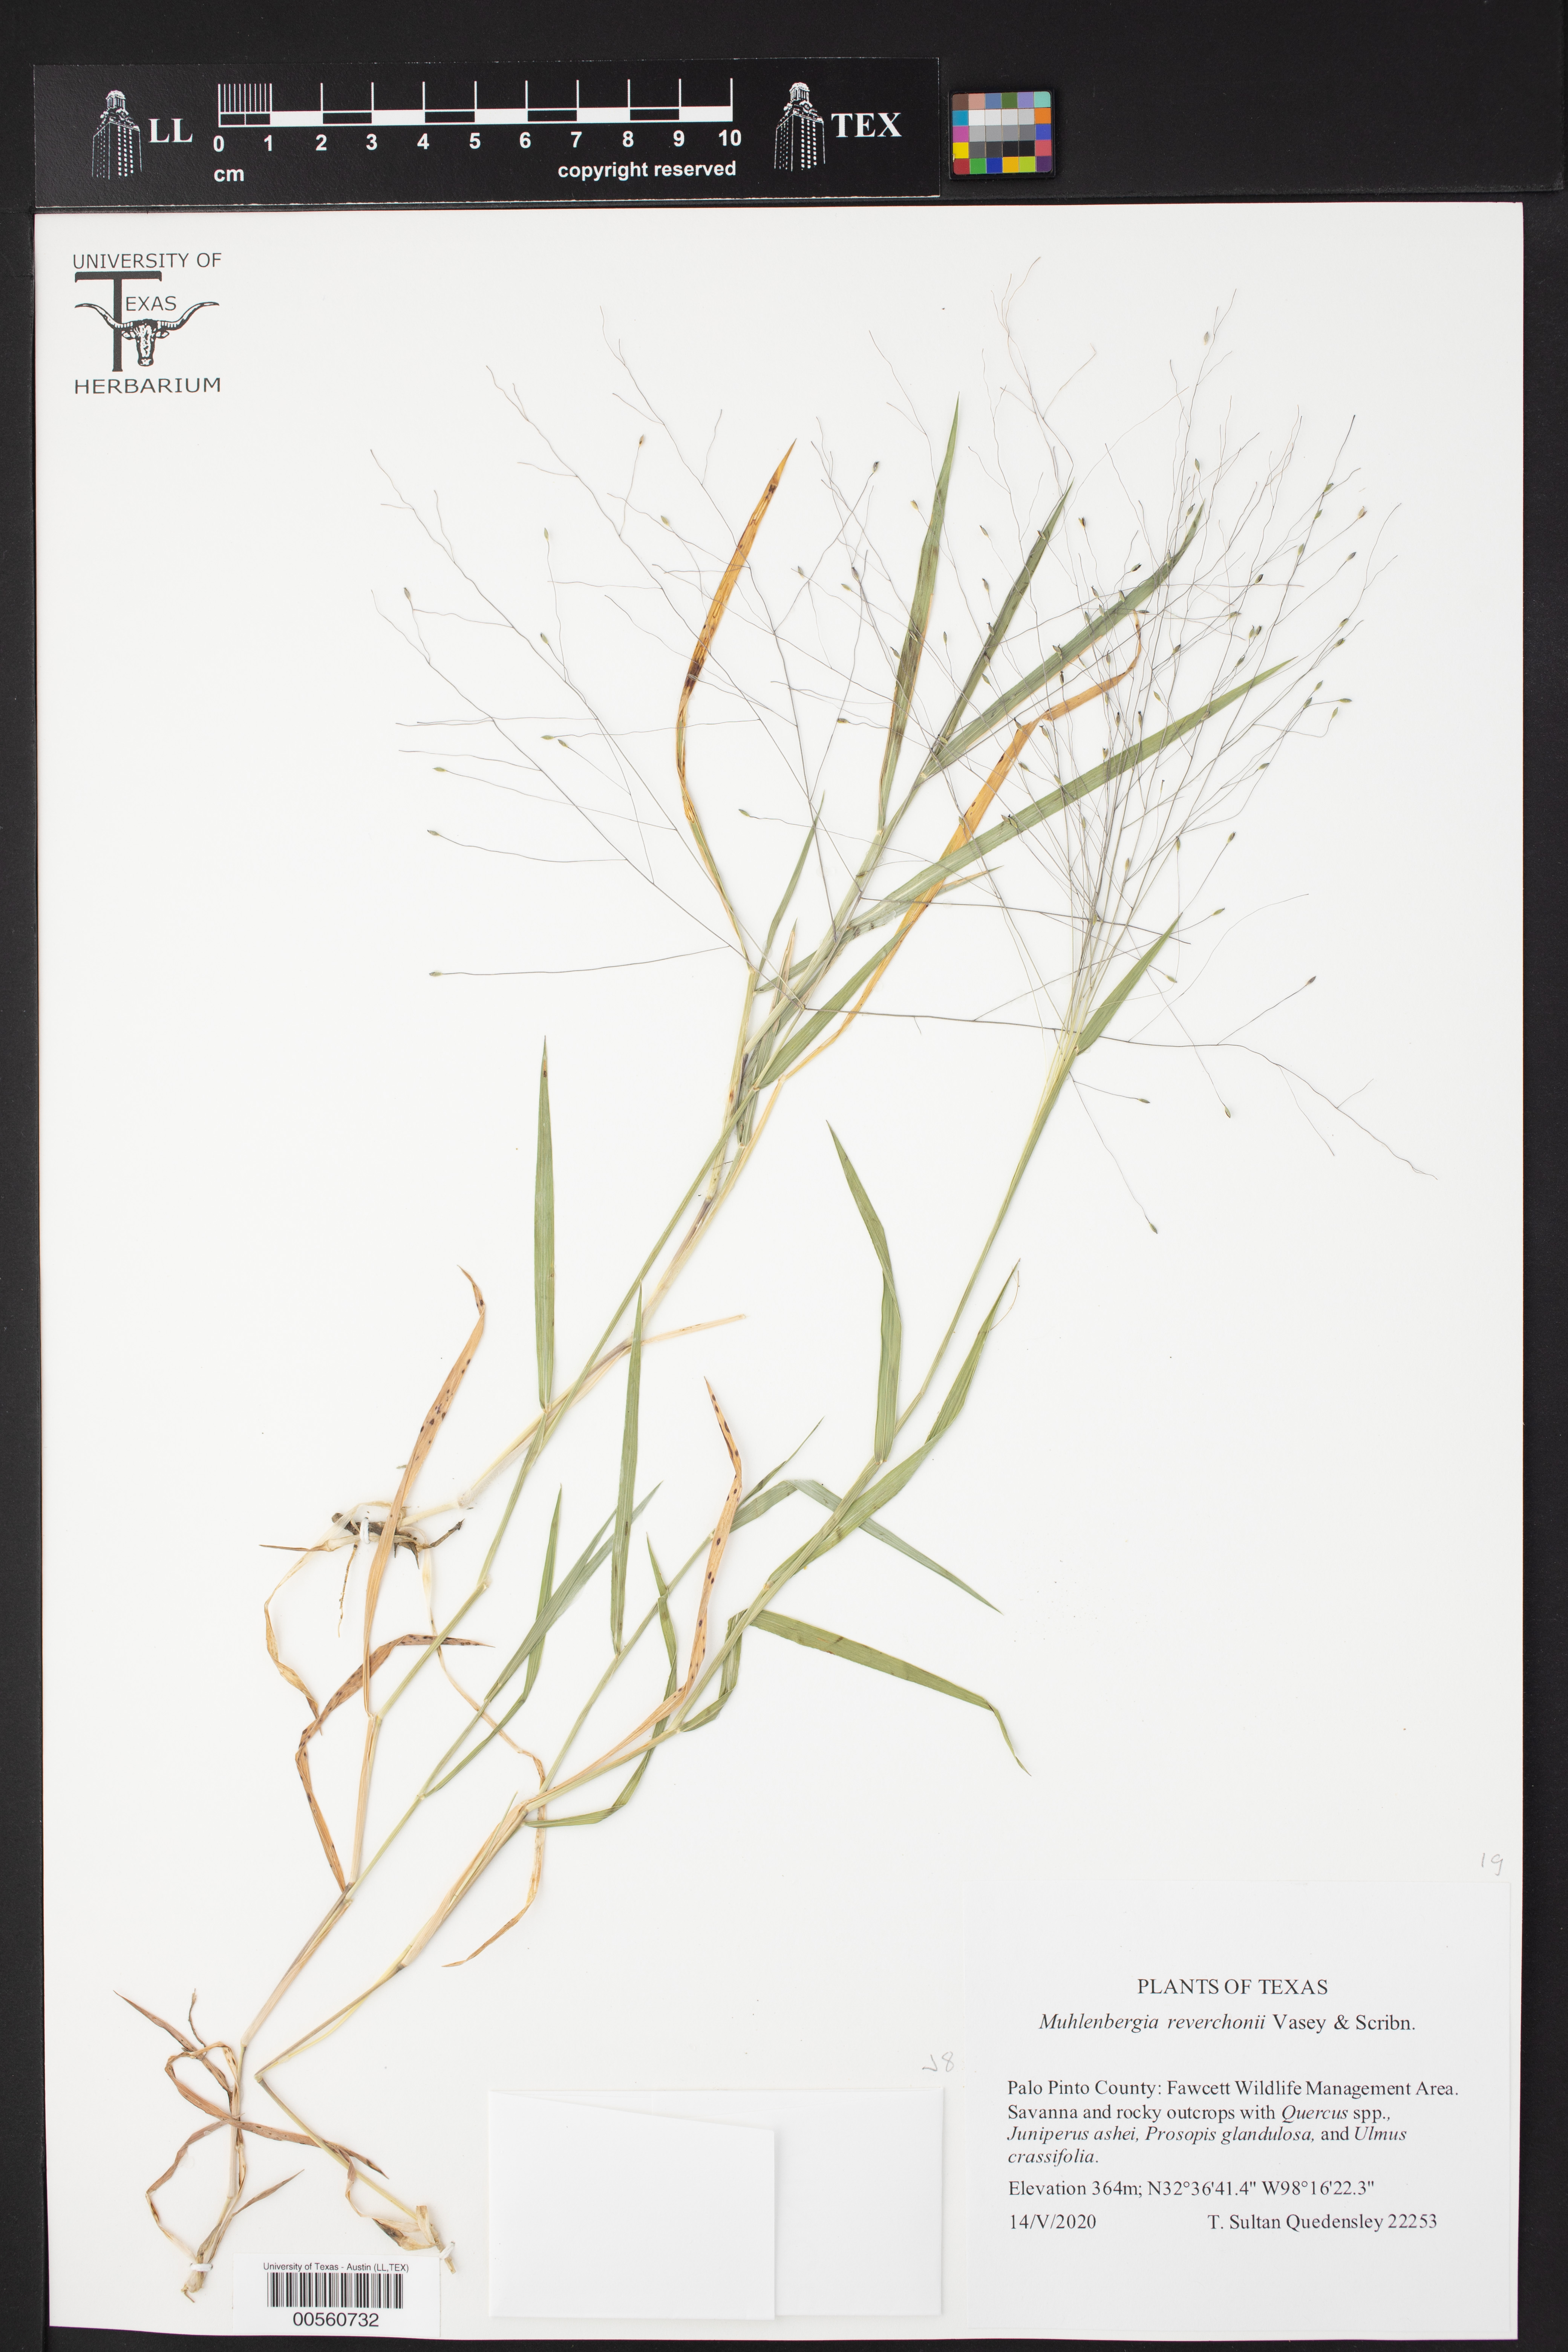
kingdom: Plantae
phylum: Tracheophyta
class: Liliopsida
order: Poales
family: Poaceae
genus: Muhlenbergia
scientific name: Muhlenbergia reverchonii
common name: Seep muhly
